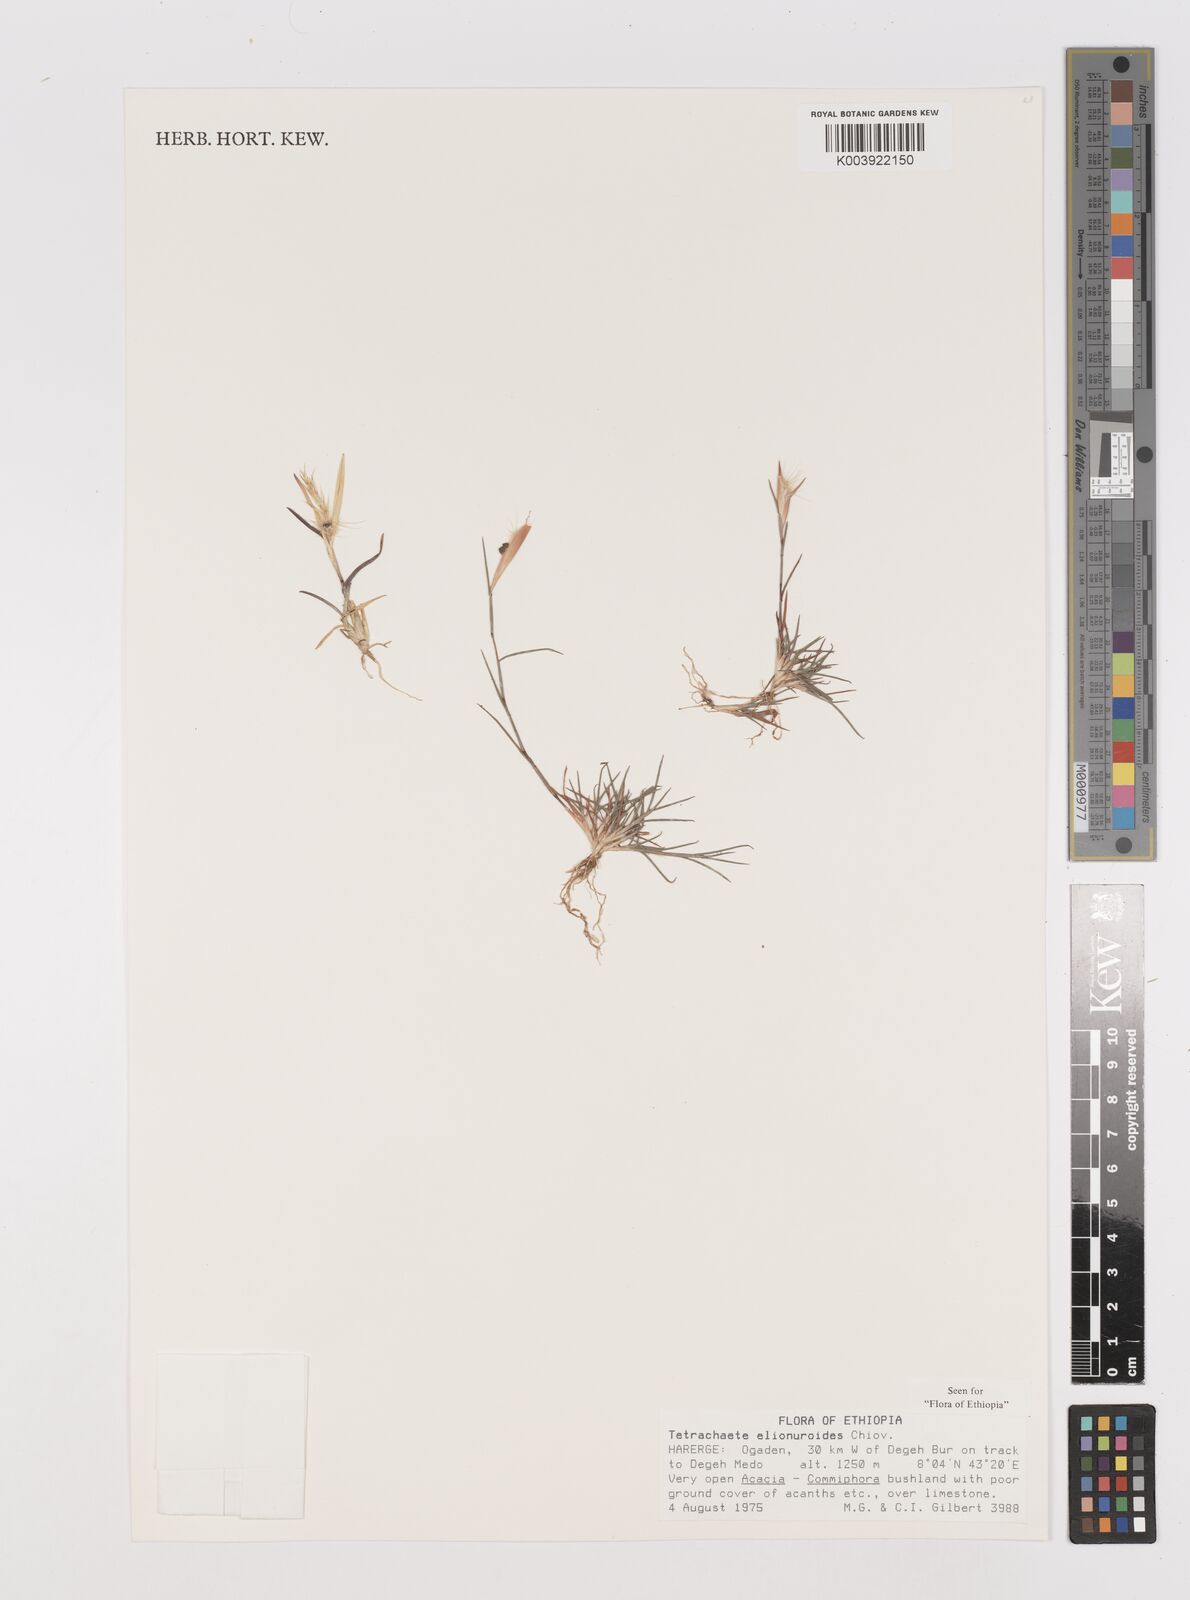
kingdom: Plantae
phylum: Tracheophyta
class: Liliopsida
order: Poales
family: Poaceae
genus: Tetrachaete
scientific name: Tetrachaete elionuroides
